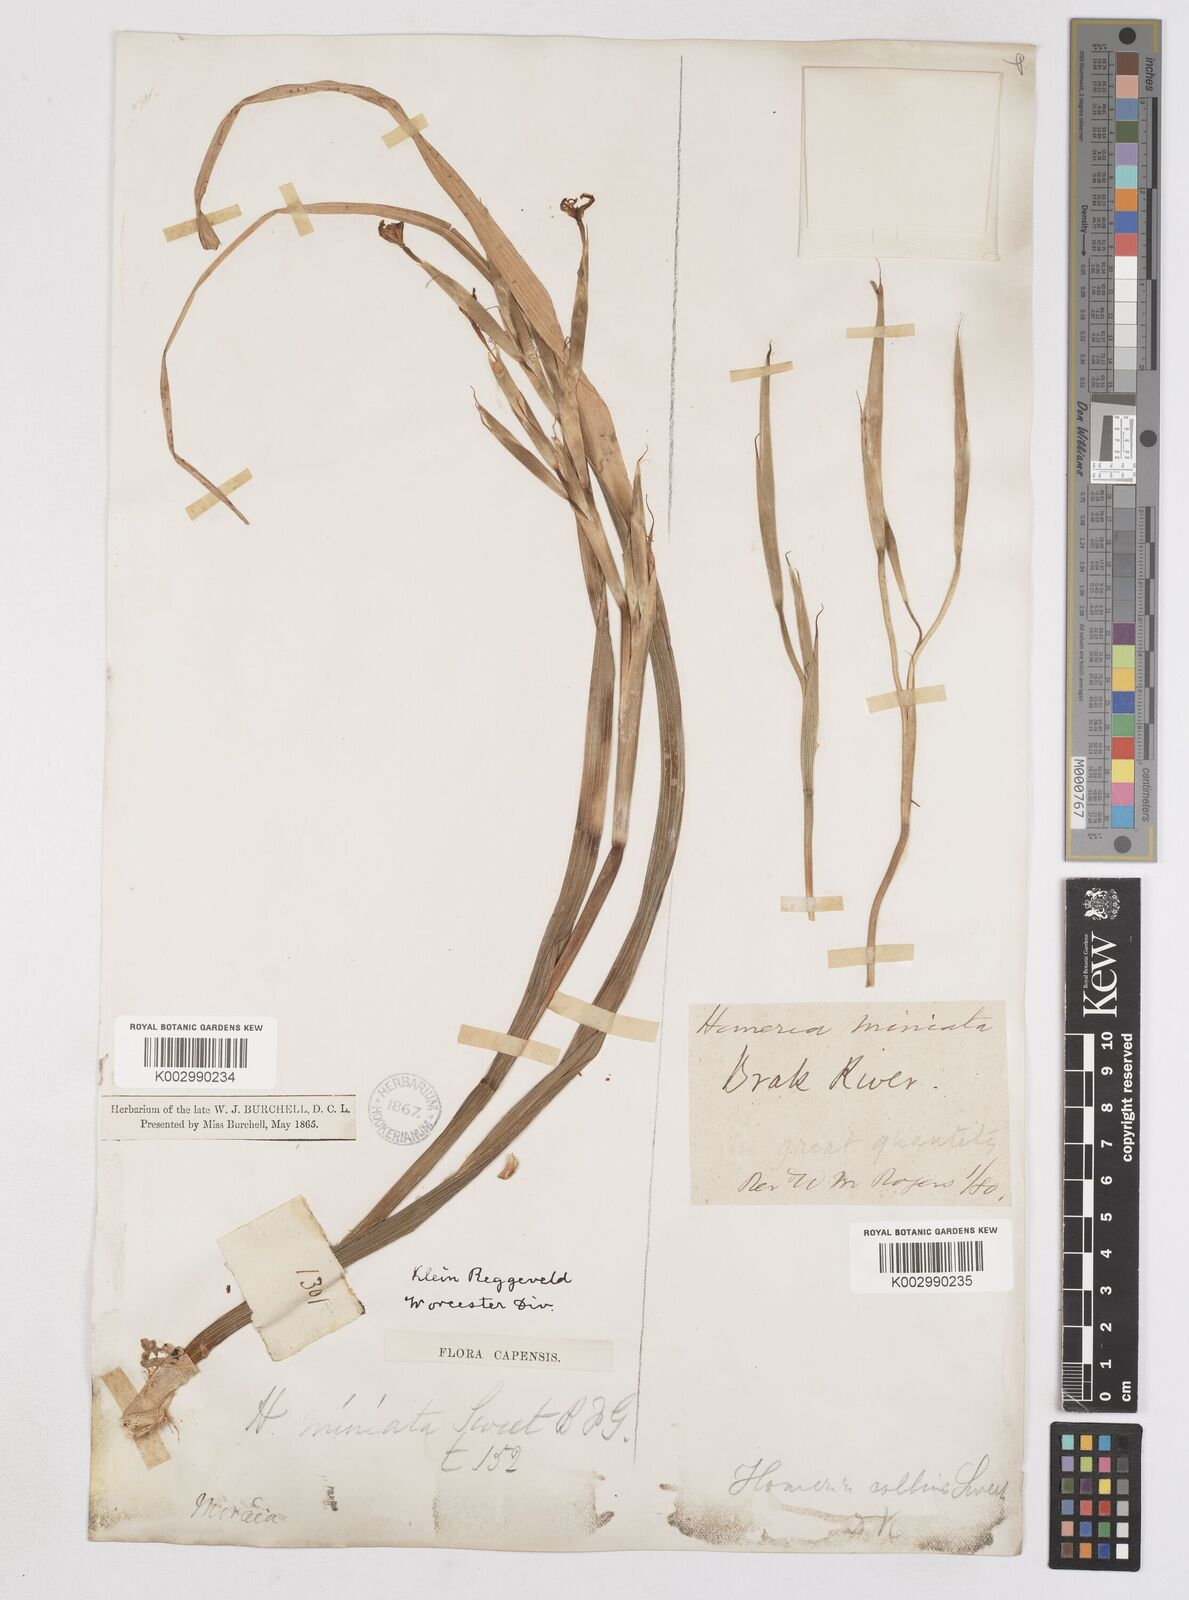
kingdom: Plantae
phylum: Tracheophyta
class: Liliopsida
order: Asparagales
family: Iridaceae
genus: Moraea
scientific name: Moraea miniata
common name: Two-leaf cape-tulip
